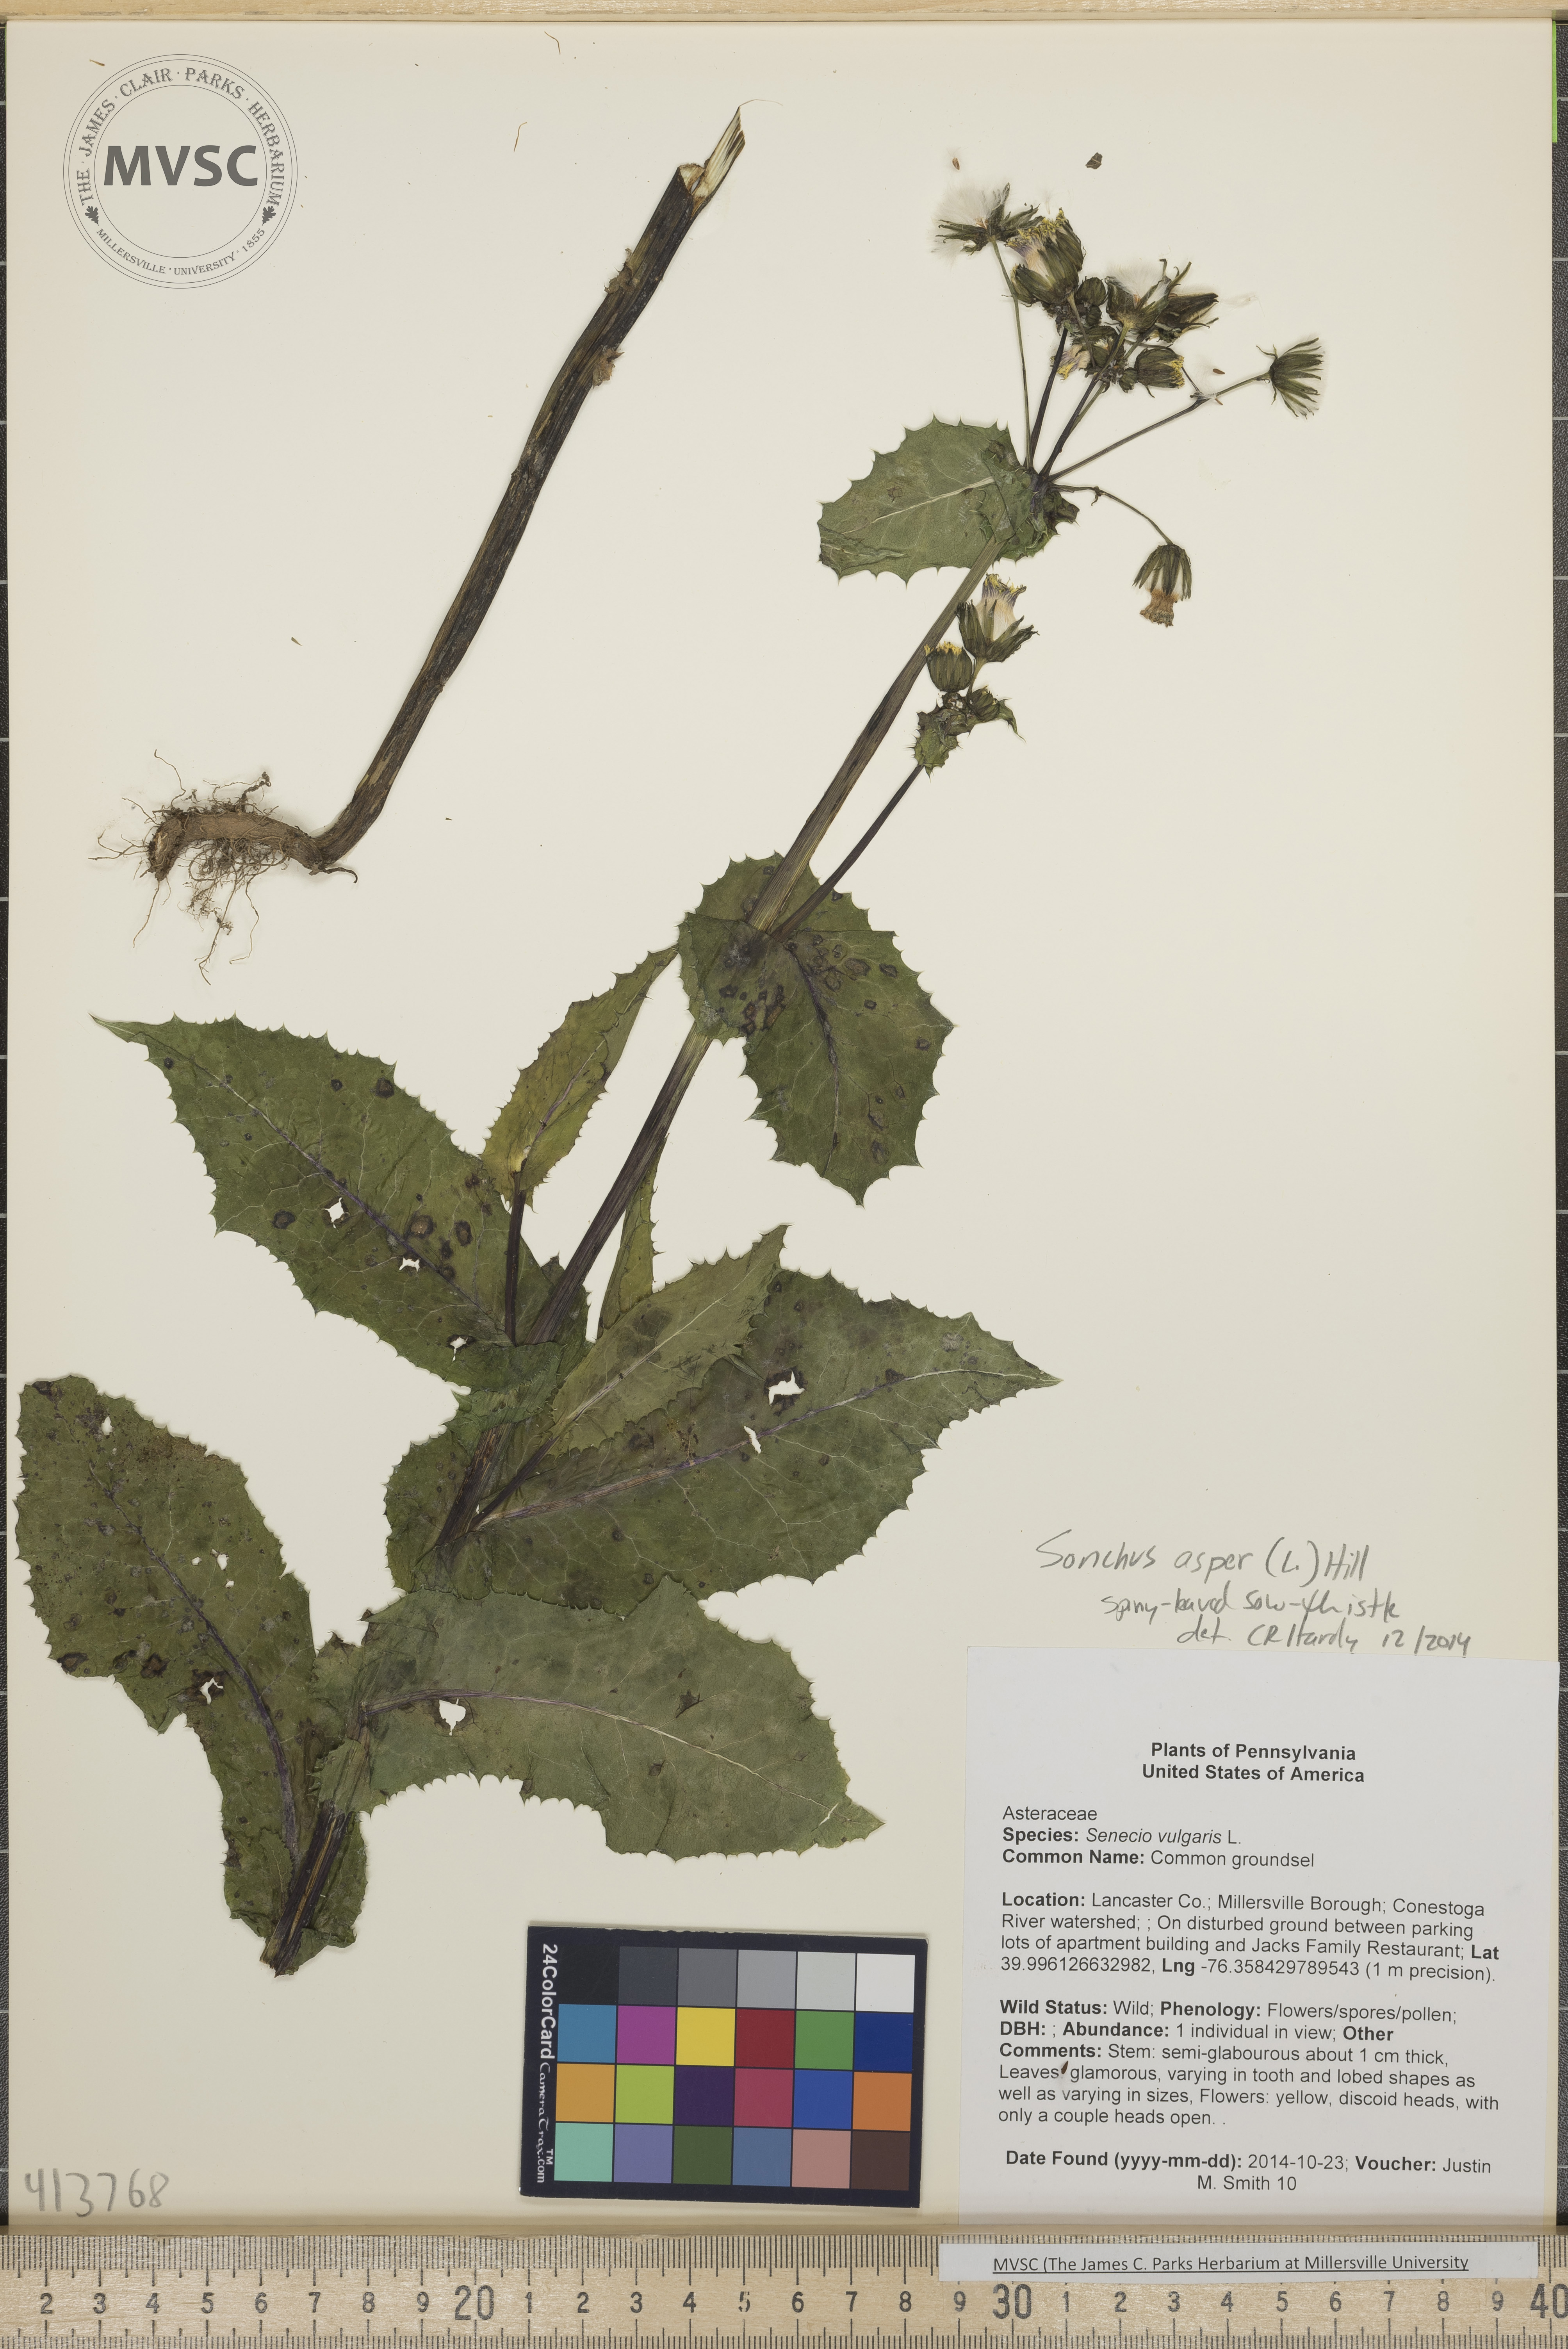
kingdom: Plantae
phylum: Tracheophyta
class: Magnoliopsida
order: Asterales
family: Asteraceae
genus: Sonchus
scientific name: Sonchus asper
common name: spiny-leaved sow-thistle
